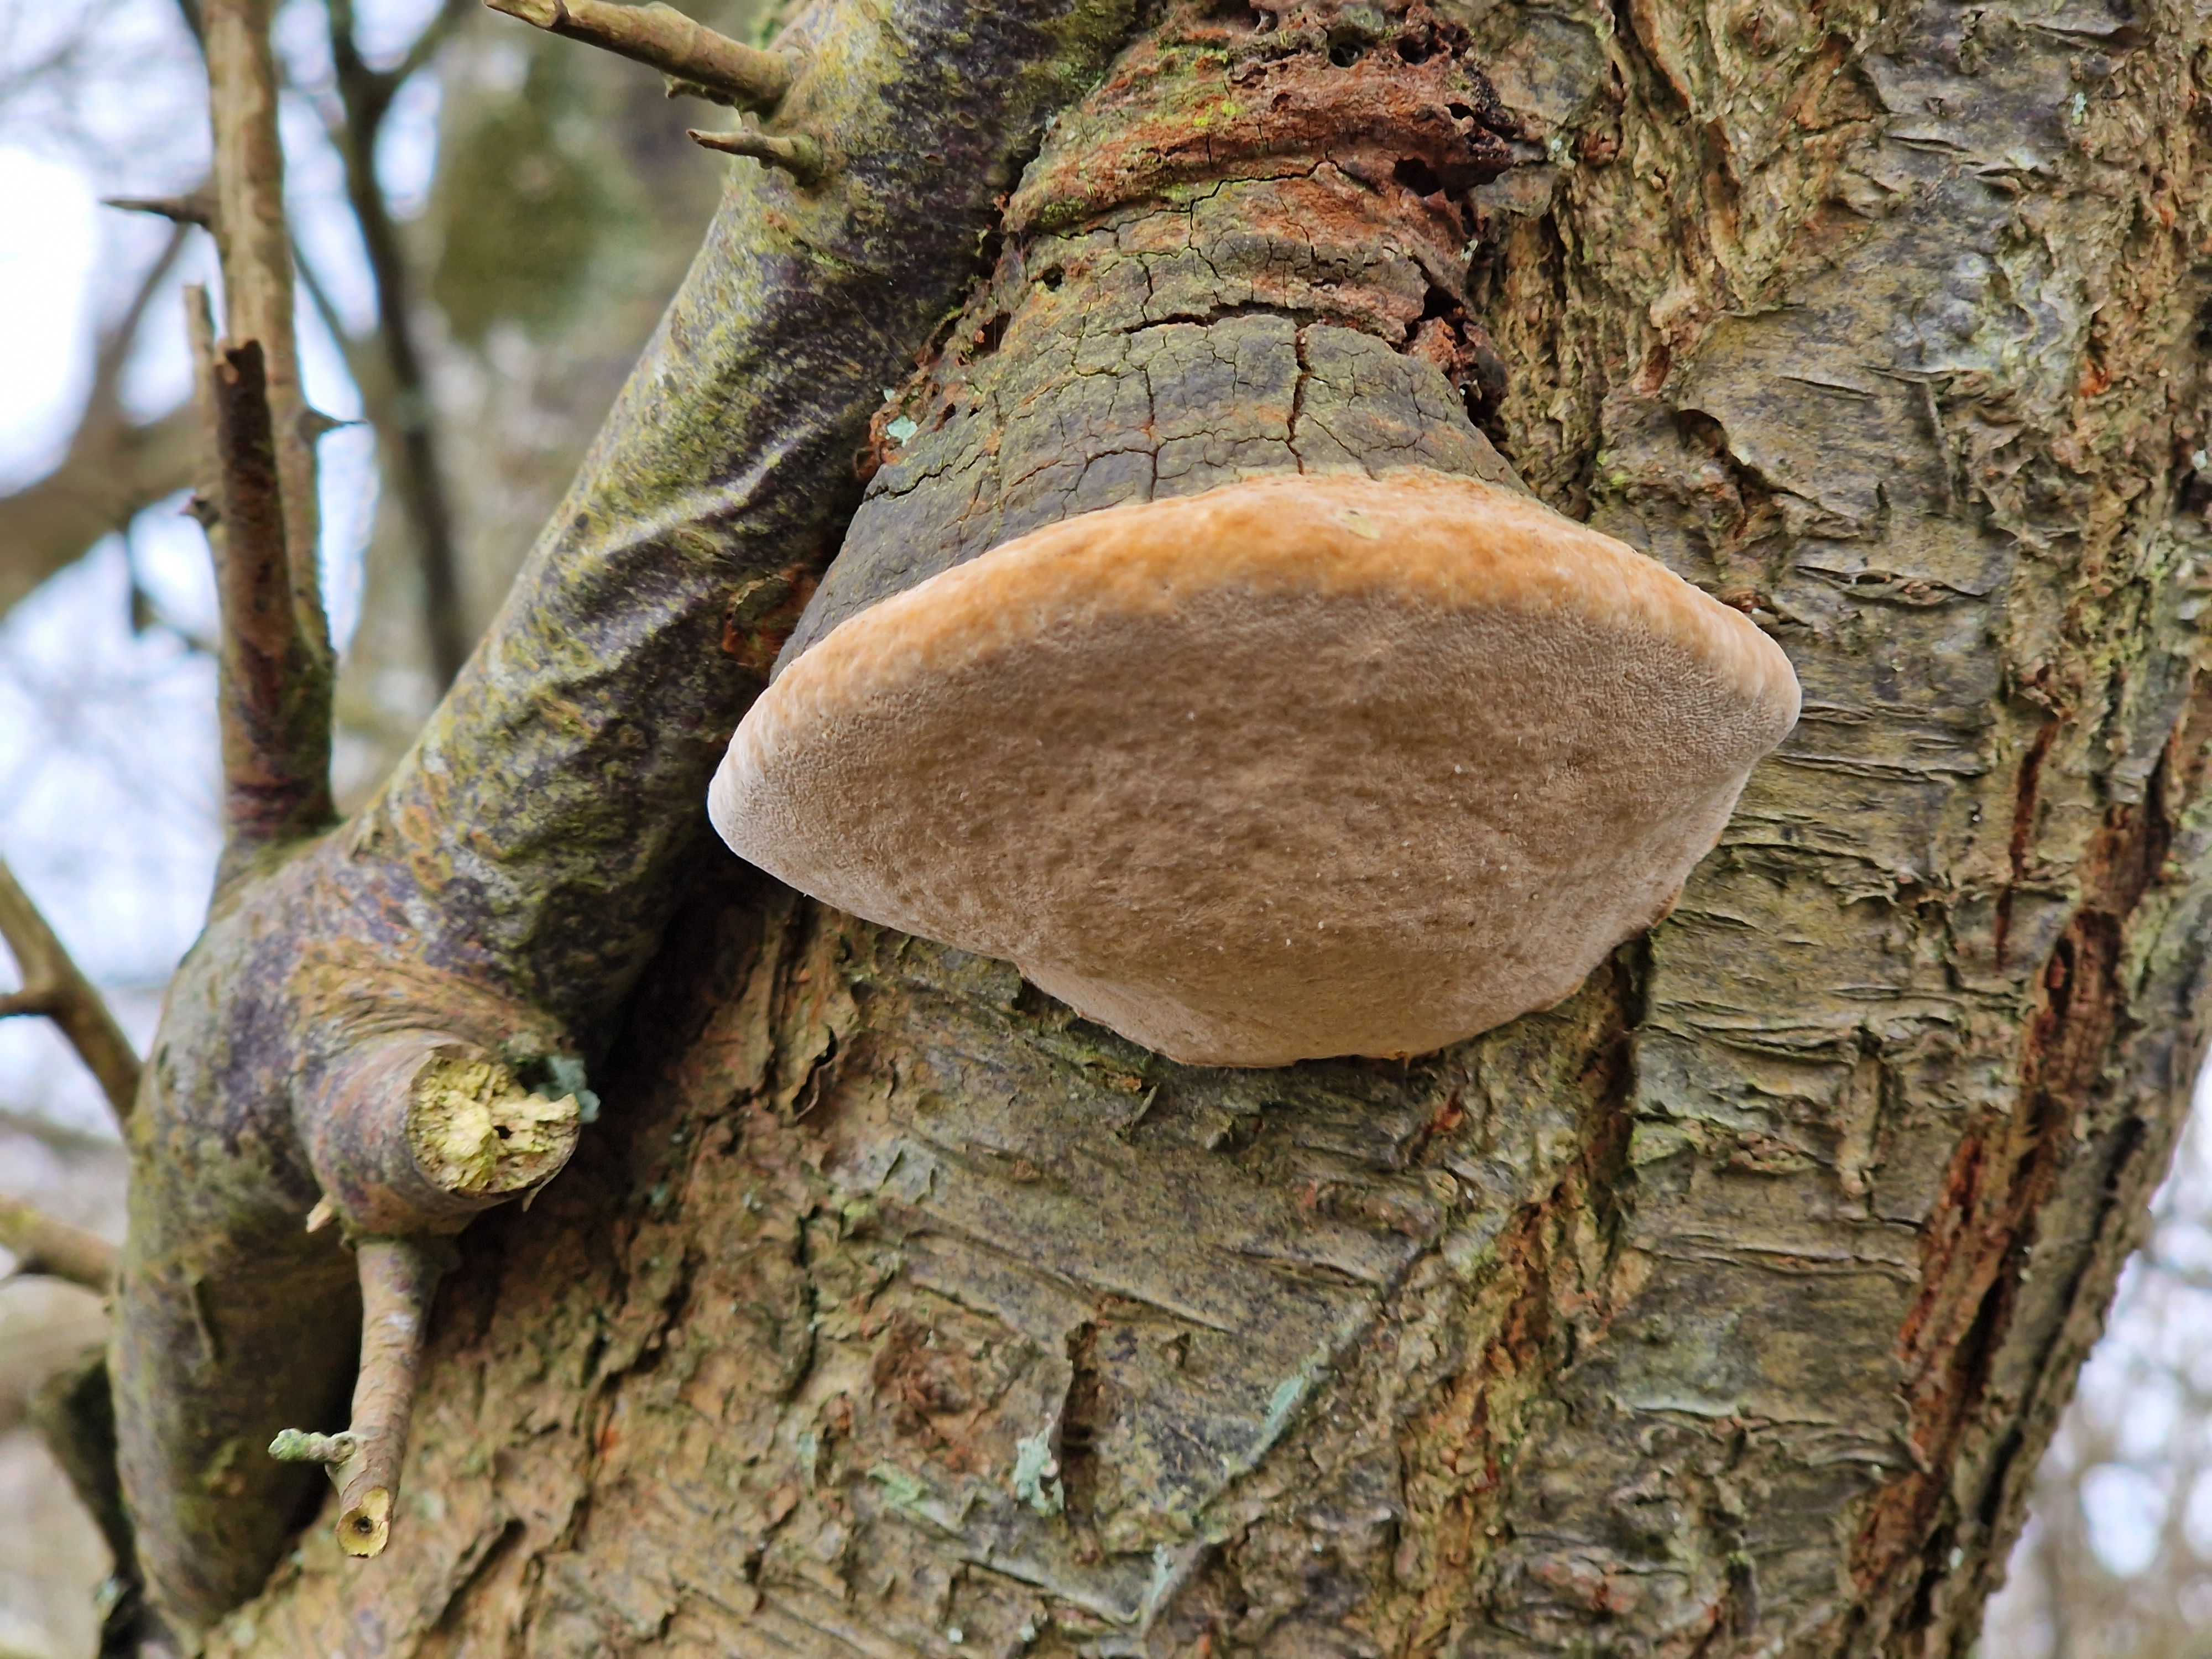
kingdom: Fungi
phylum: Basidiomycota
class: Agaricomycetes
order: Hymenochaetales
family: Hymenochaetaceae
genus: Phellinus
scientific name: Phellinus pomaceus
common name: blomme-ildporesvamp
